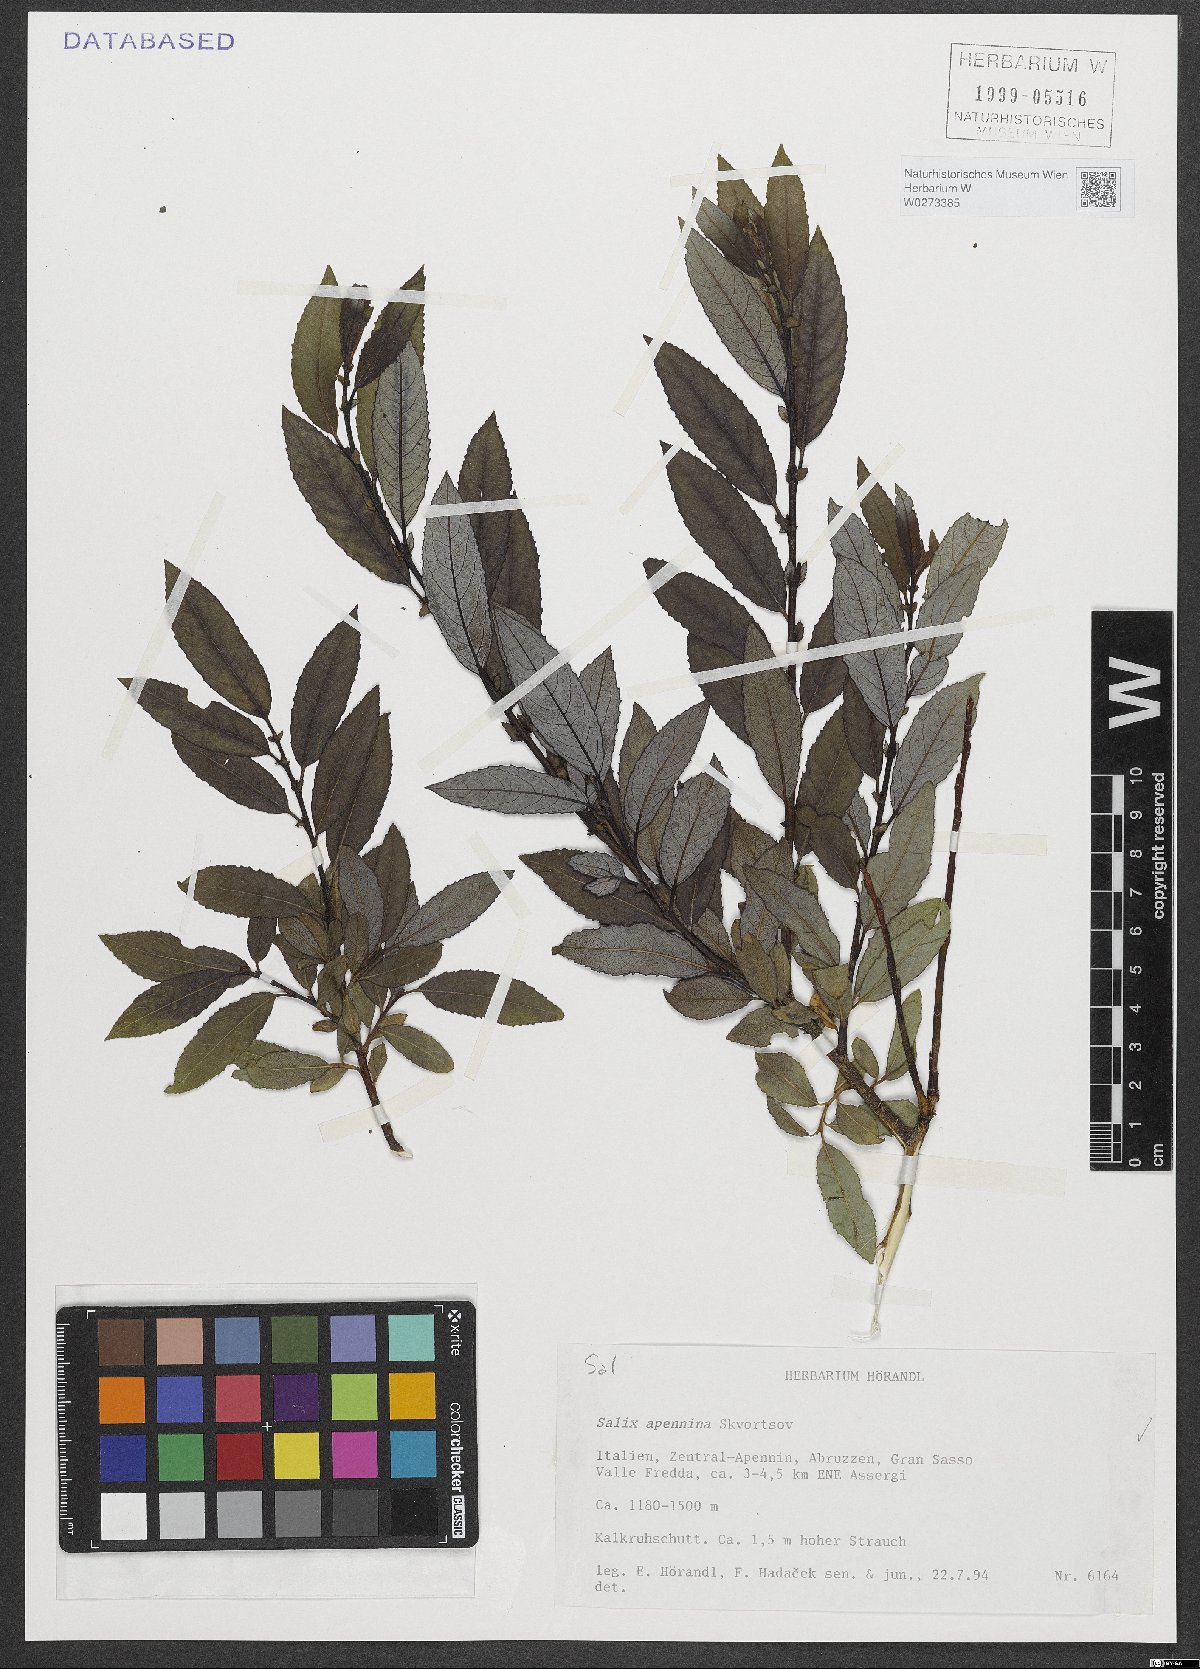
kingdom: Plantae
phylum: Tracheophyta
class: Magnoliopsida
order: Malpighiales
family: Salicaceae
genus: Salix
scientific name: Salix apennina
